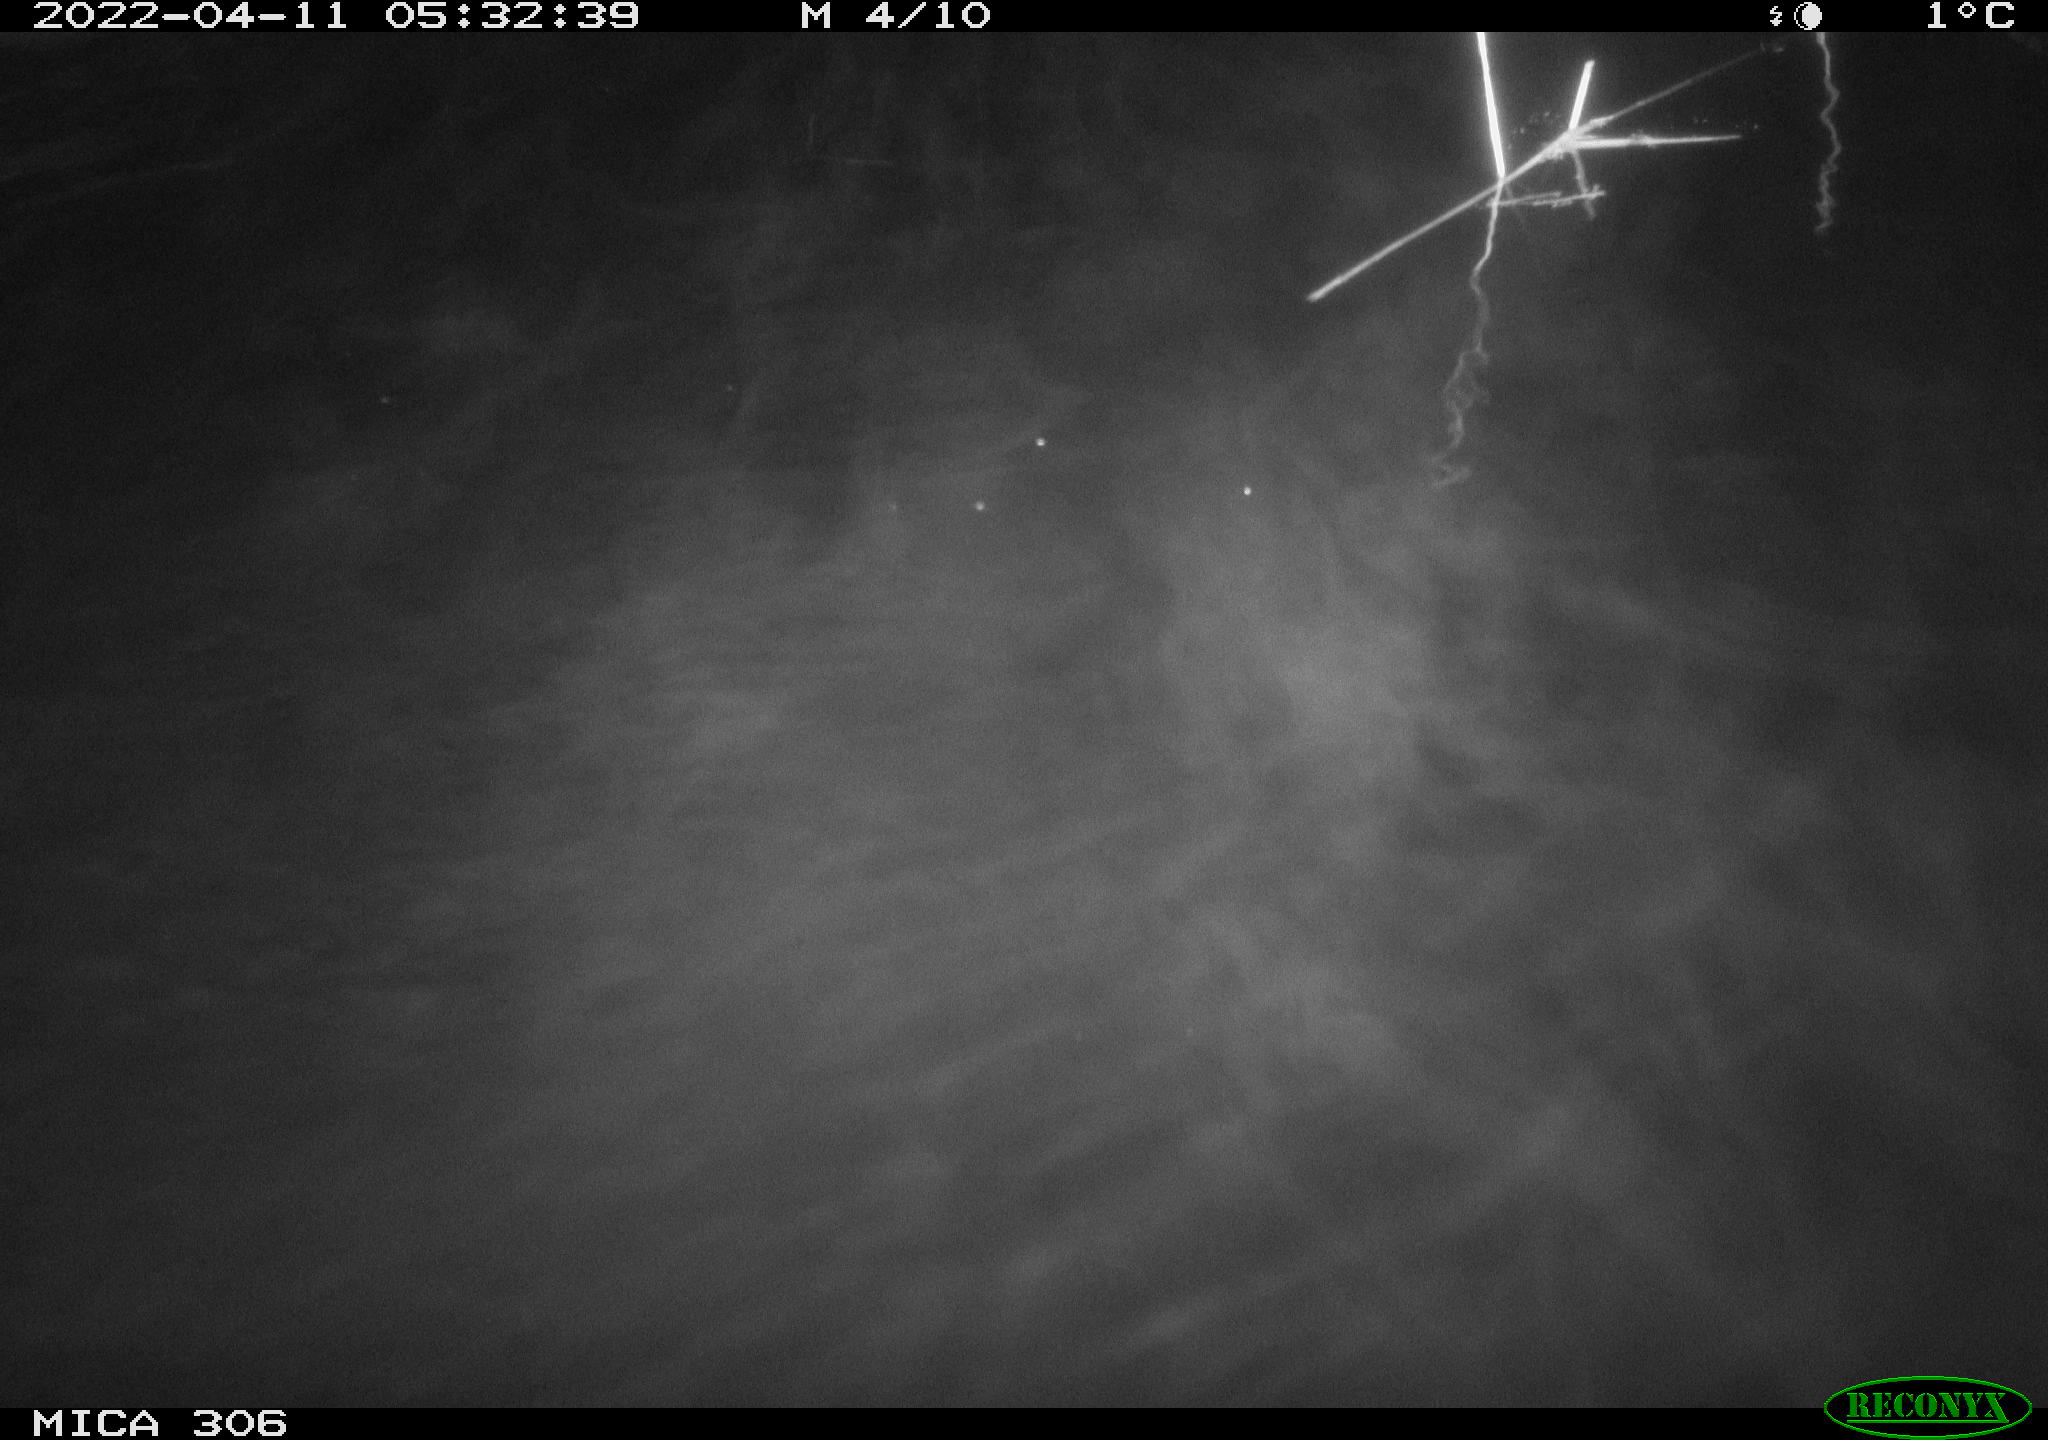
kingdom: Animalia
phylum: Chordata
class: Mammalia
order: Rodentia
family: Cricetidae
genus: Ondatra
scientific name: Ondatra zibethicus
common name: Muskrat
